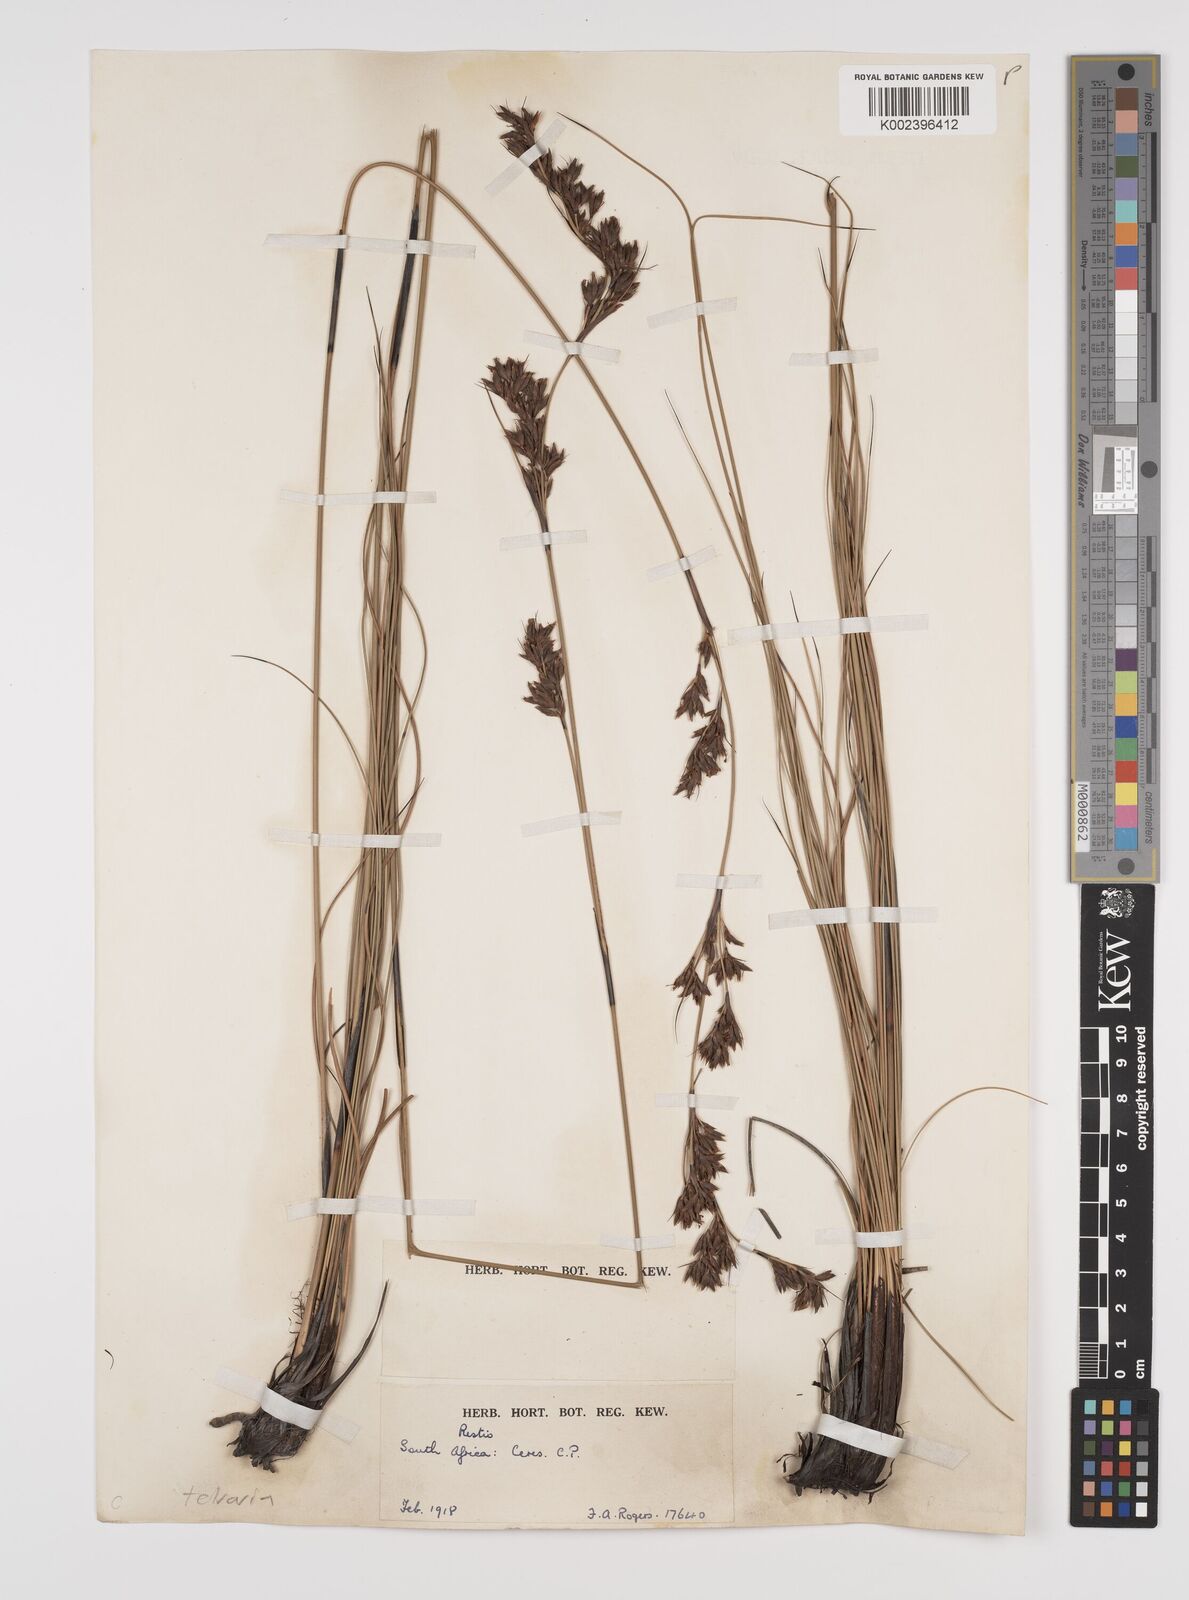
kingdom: Plantae
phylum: Tracheophyta
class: Liliopsida
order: Poales
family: Cyperaceae
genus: Tetraria
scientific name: Tetraria
